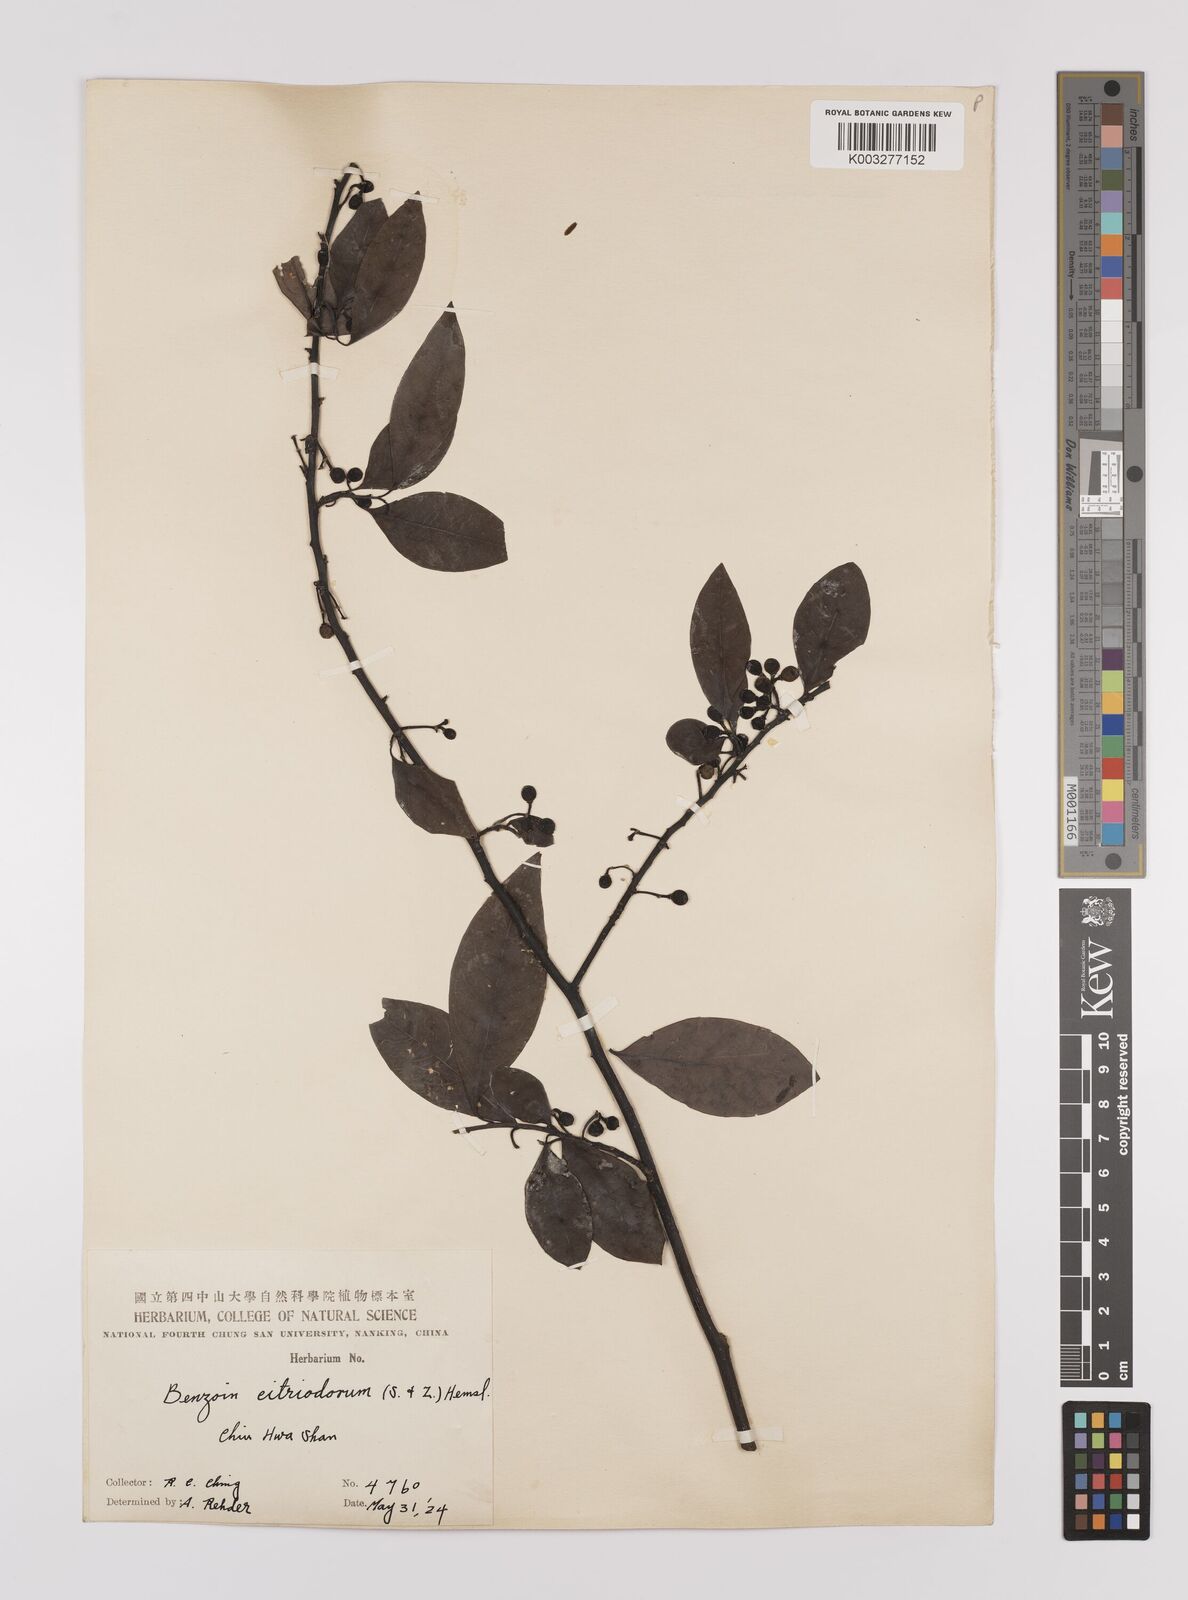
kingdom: Plantae
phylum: Tracheophyta
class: Magnoliopsida
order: Laurales
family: Lauraceae
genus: Litsea
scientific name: Litsea cubeba
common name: Mountain-pepper
